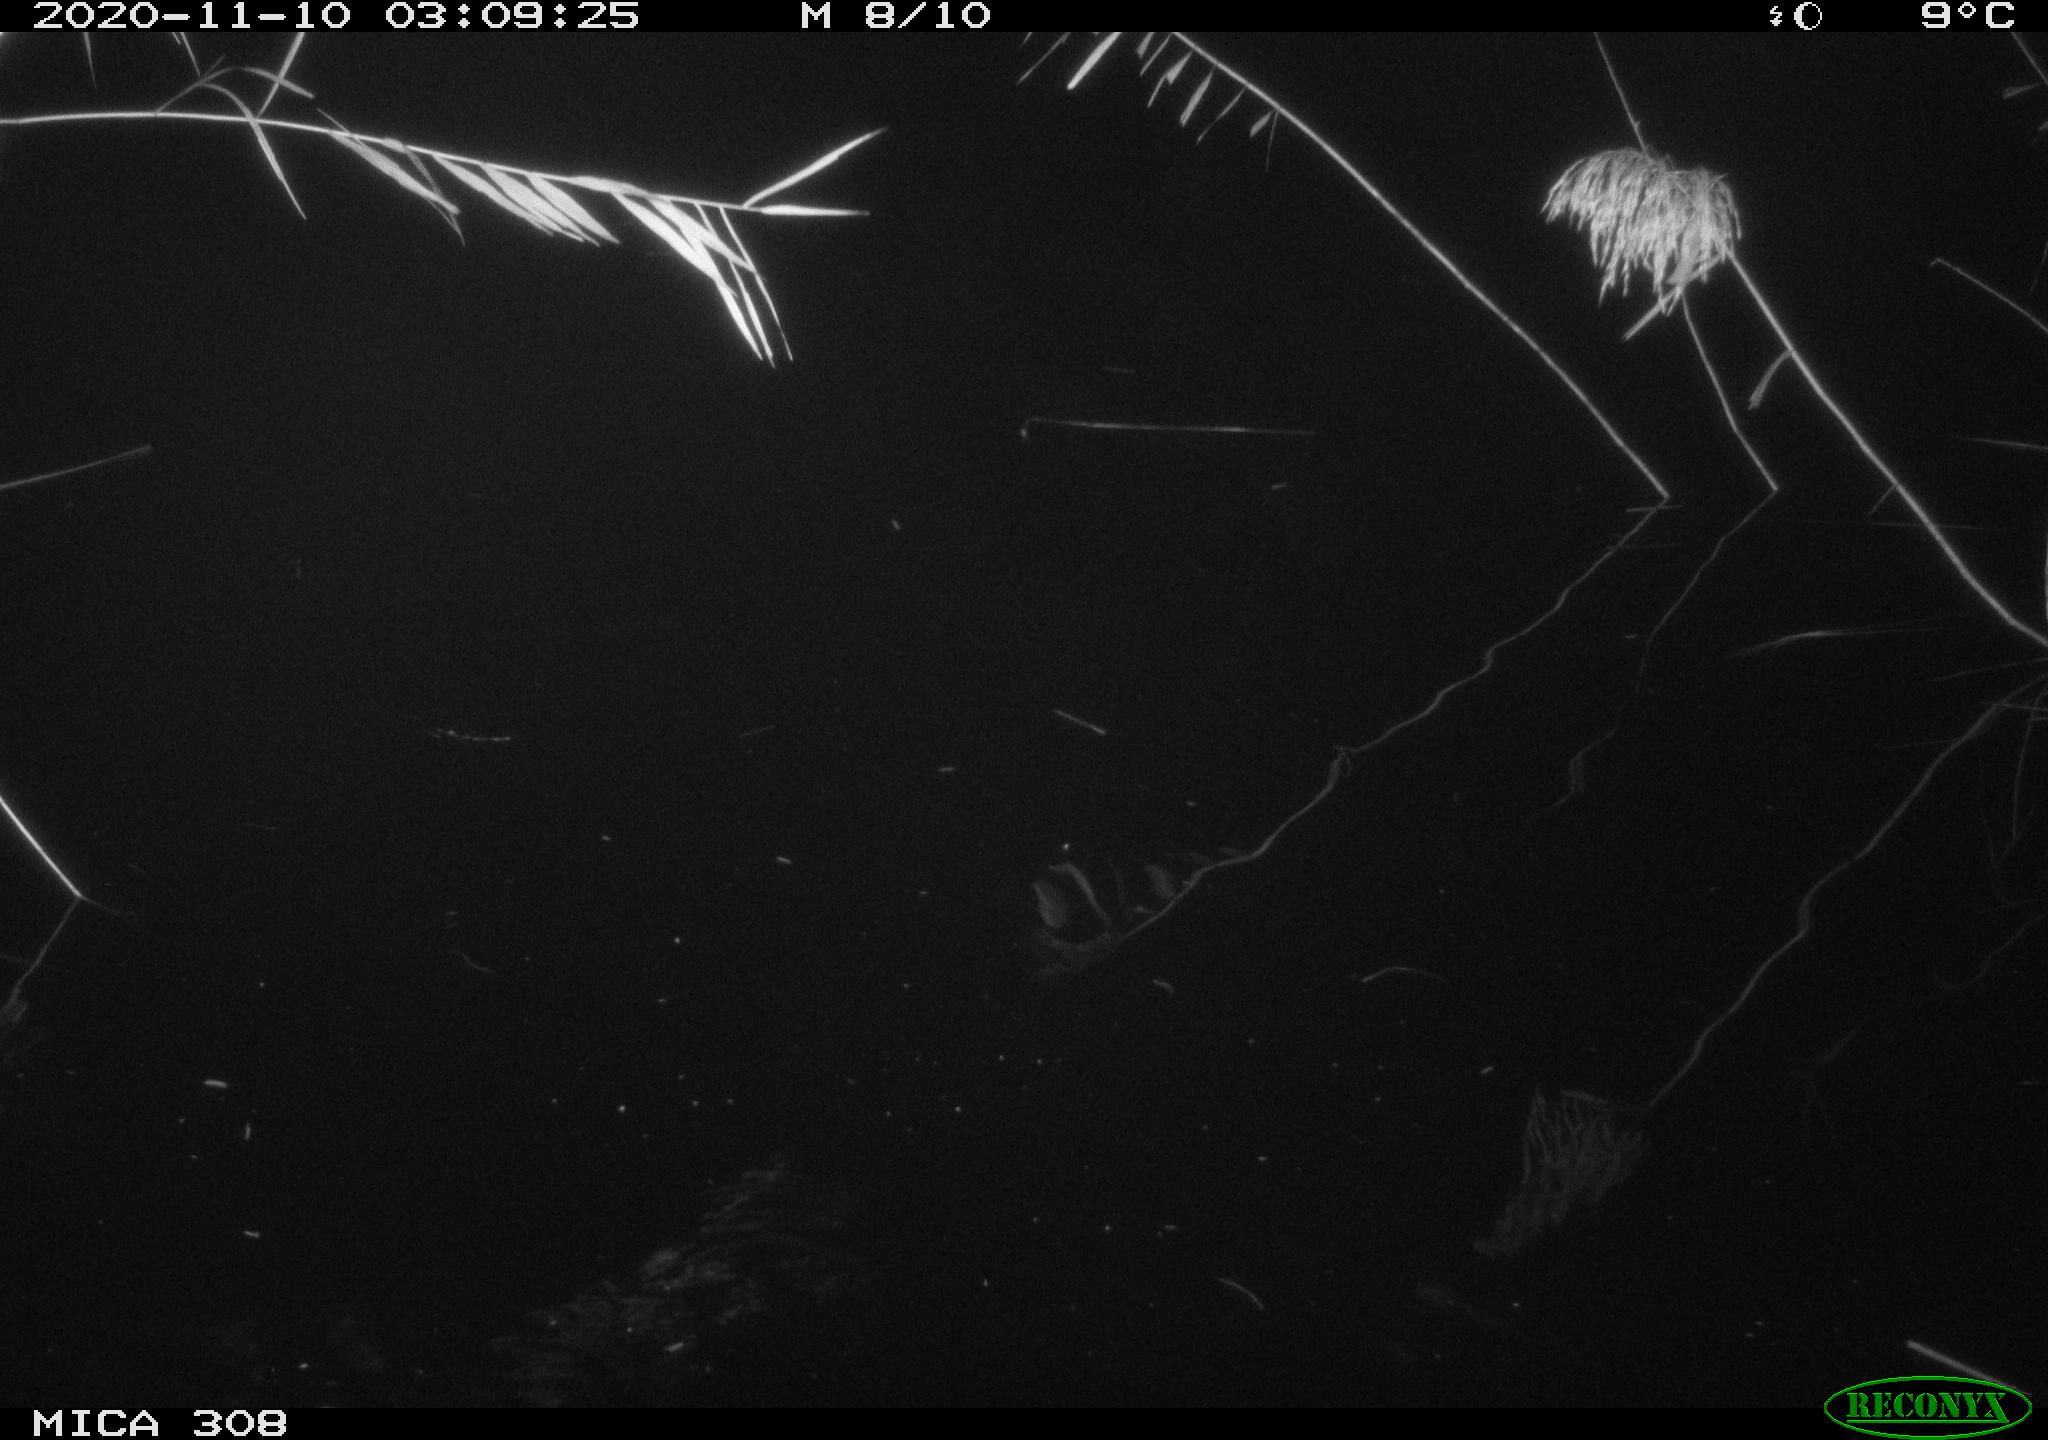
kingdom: Animalia
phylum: Chordata
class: Mammalia
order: Rodentia
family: Cricetidae
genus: Ondatra
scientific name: Ondatra zibethicus
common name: Muskrat
